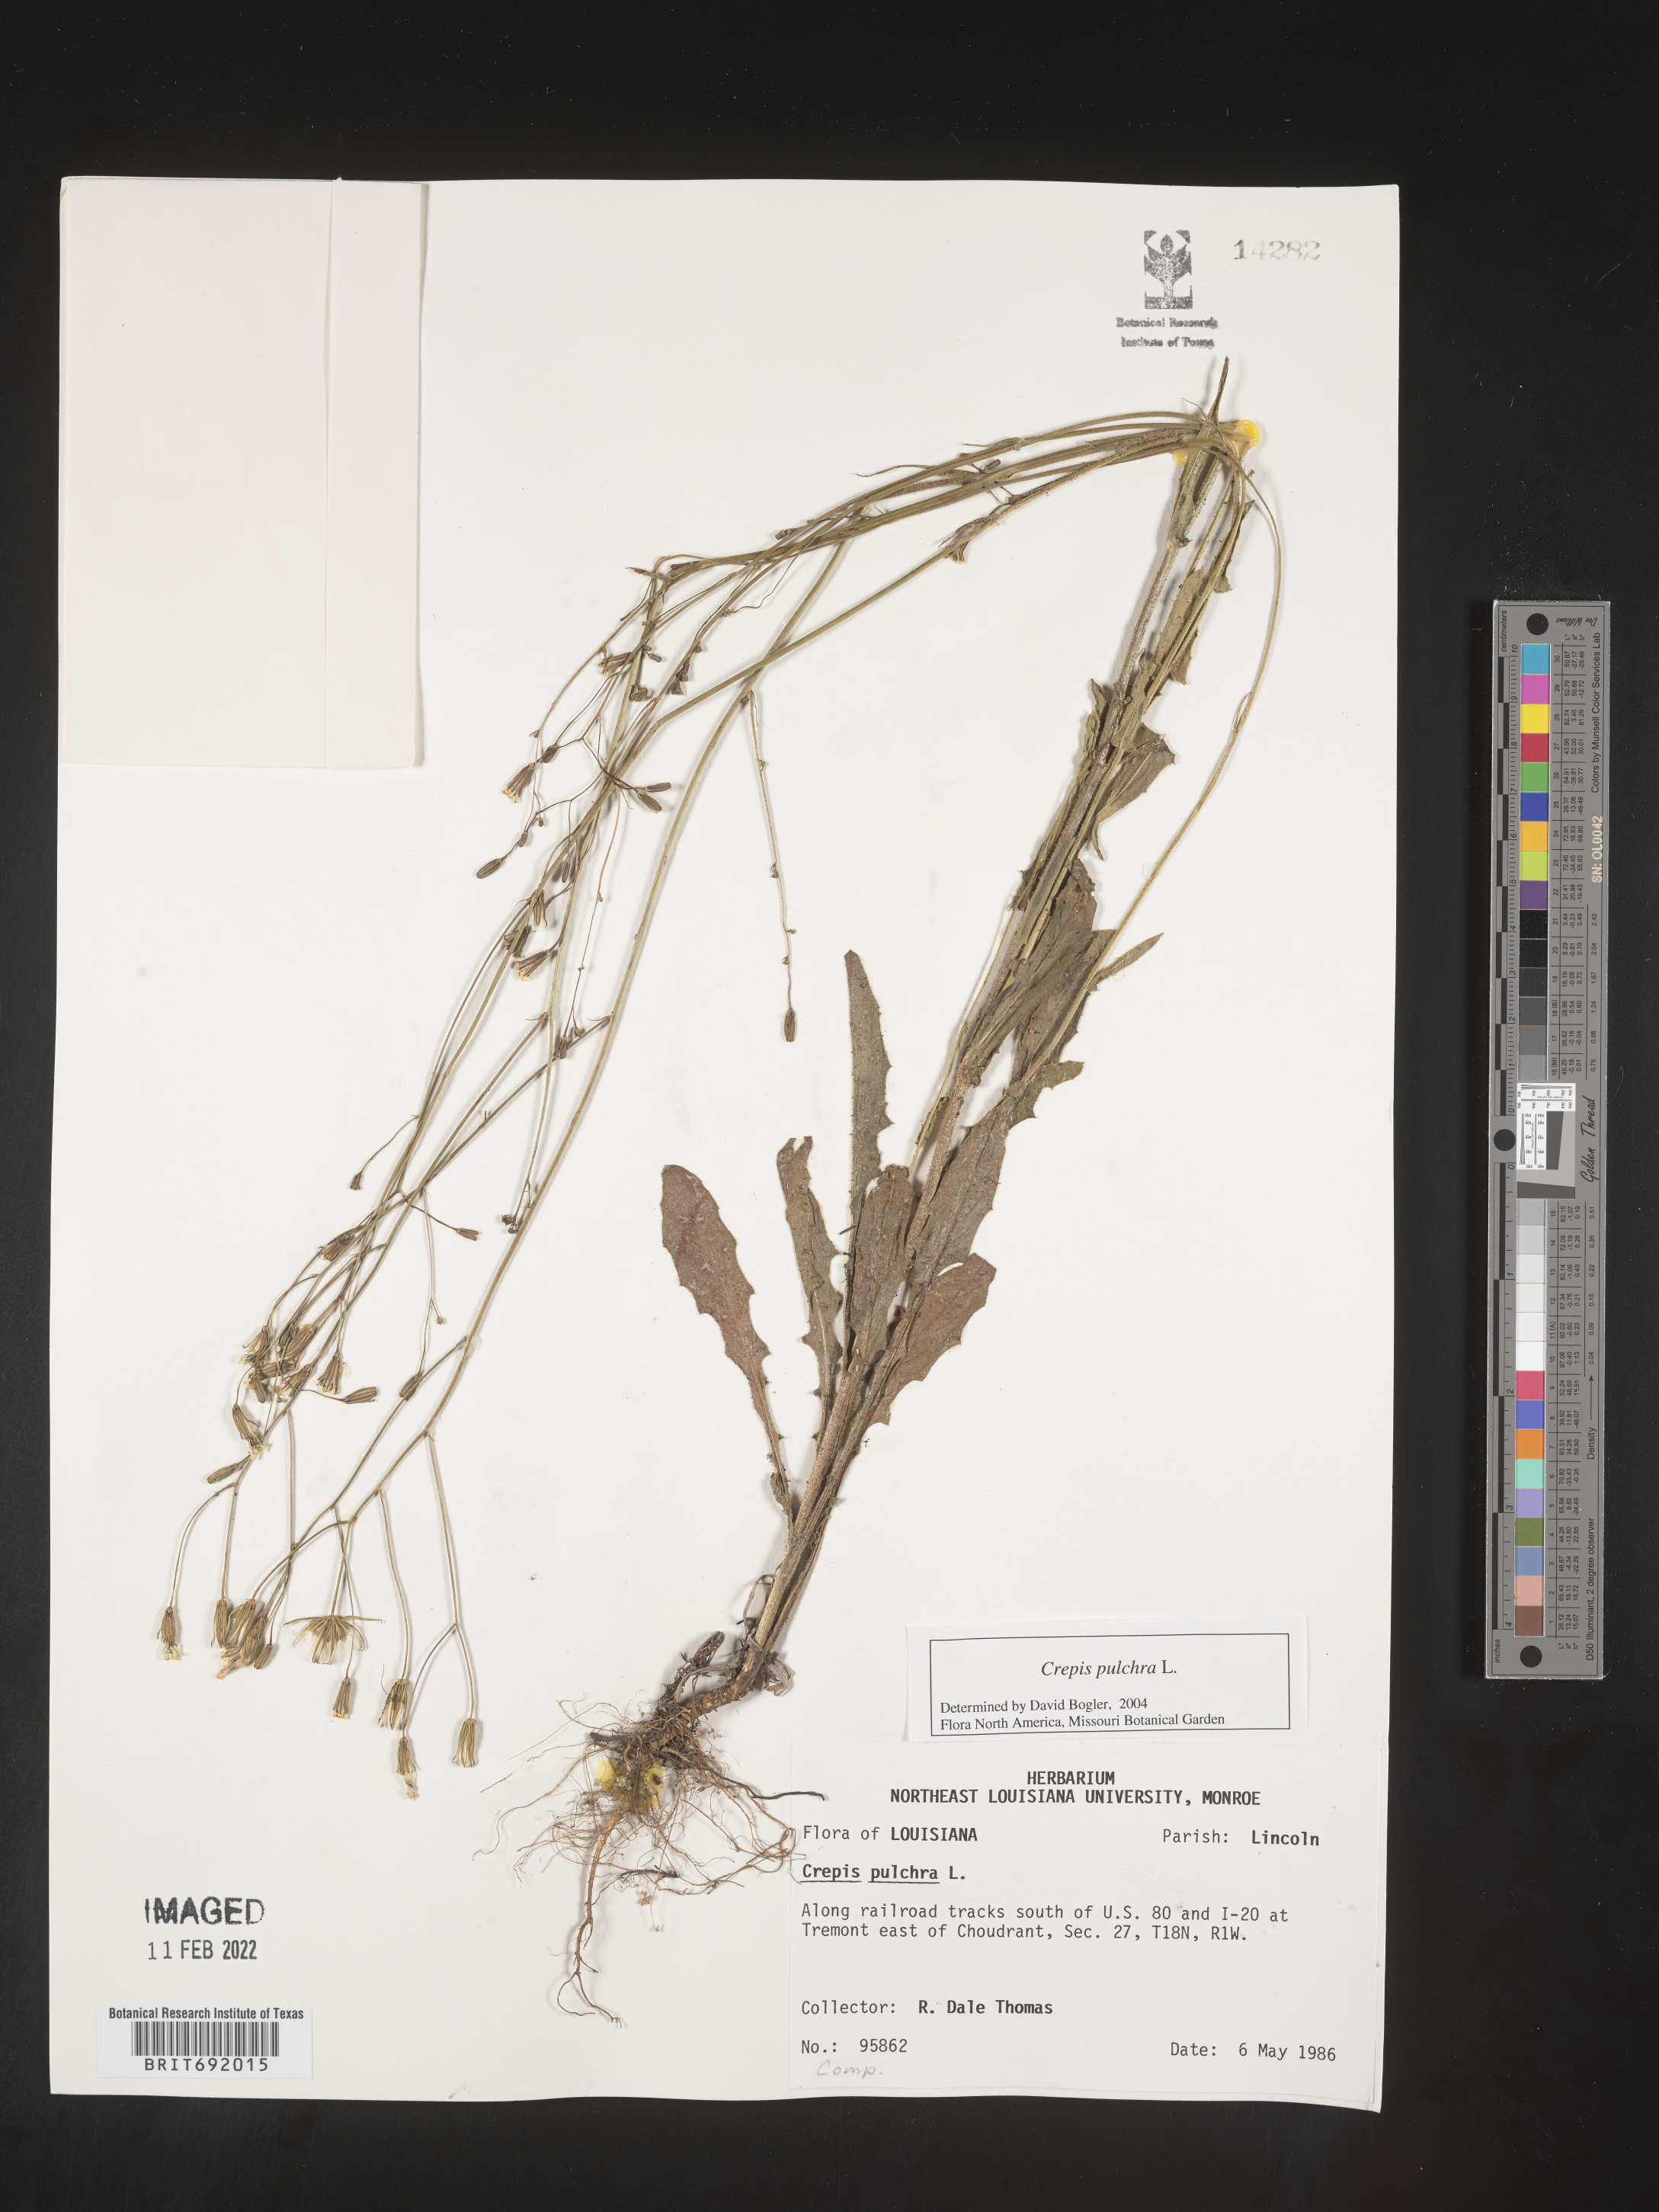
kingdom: Plantae
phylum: Tracheophyta
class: Magnoliopsida
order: Asterales
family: Asteraceae
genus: Crepis
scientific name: Crepis pulchra
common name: Hawk's-beard
